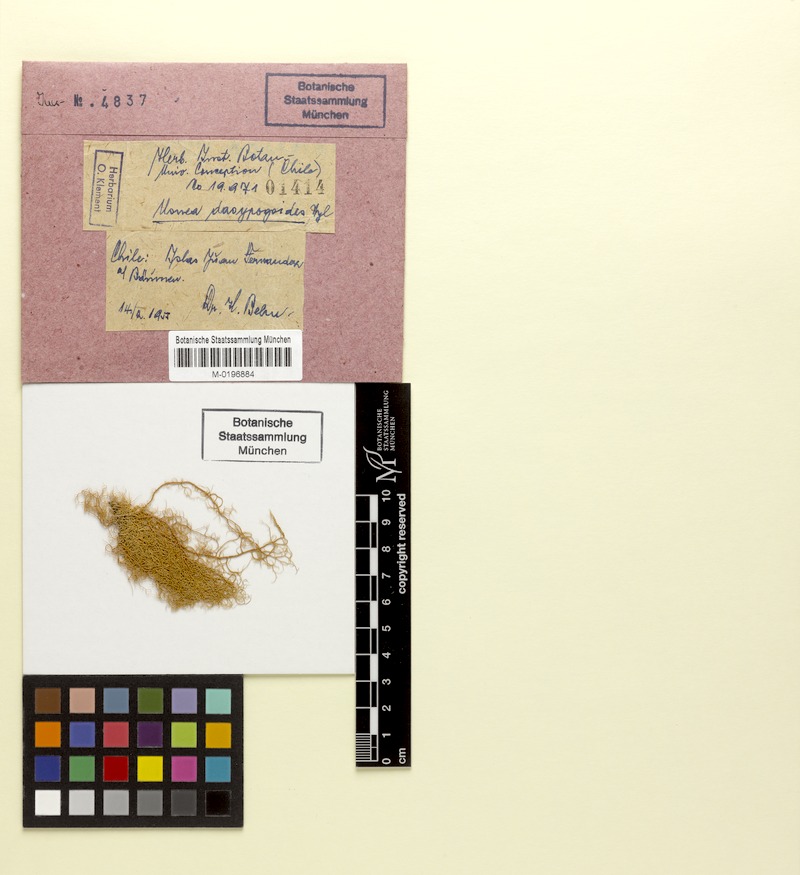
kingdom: Fungi
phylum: Ascomycota
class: Lecanoromycetes
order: Lecanorales
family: Parmeliaceae
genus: Bryoria
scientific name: Bryoria bicolor
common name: Electric horsehair lichen
